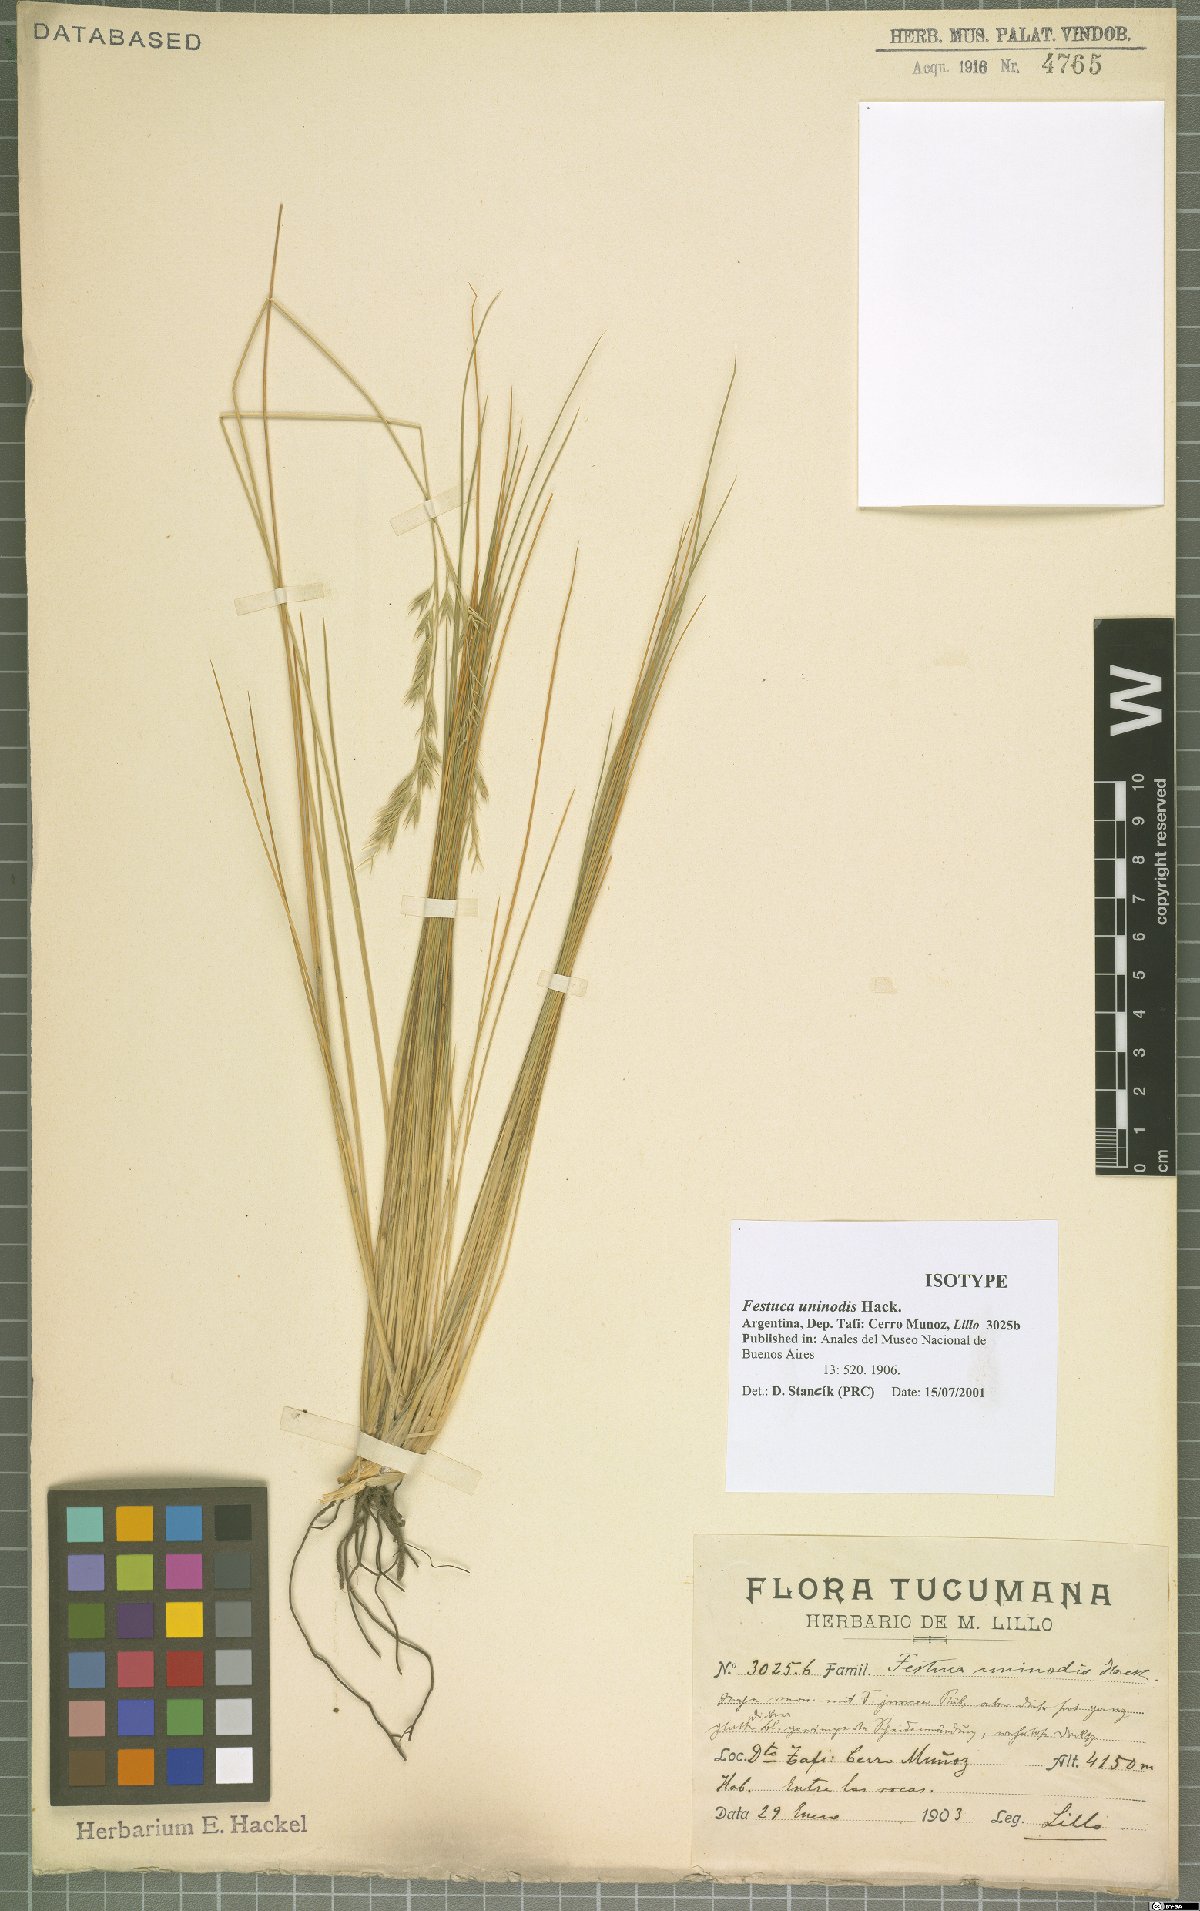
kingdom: Plantae
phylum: Tracheophyta
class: Liliopsida
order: Poales
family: Poaceae
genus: Festuca
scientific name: Festuca uninodis
